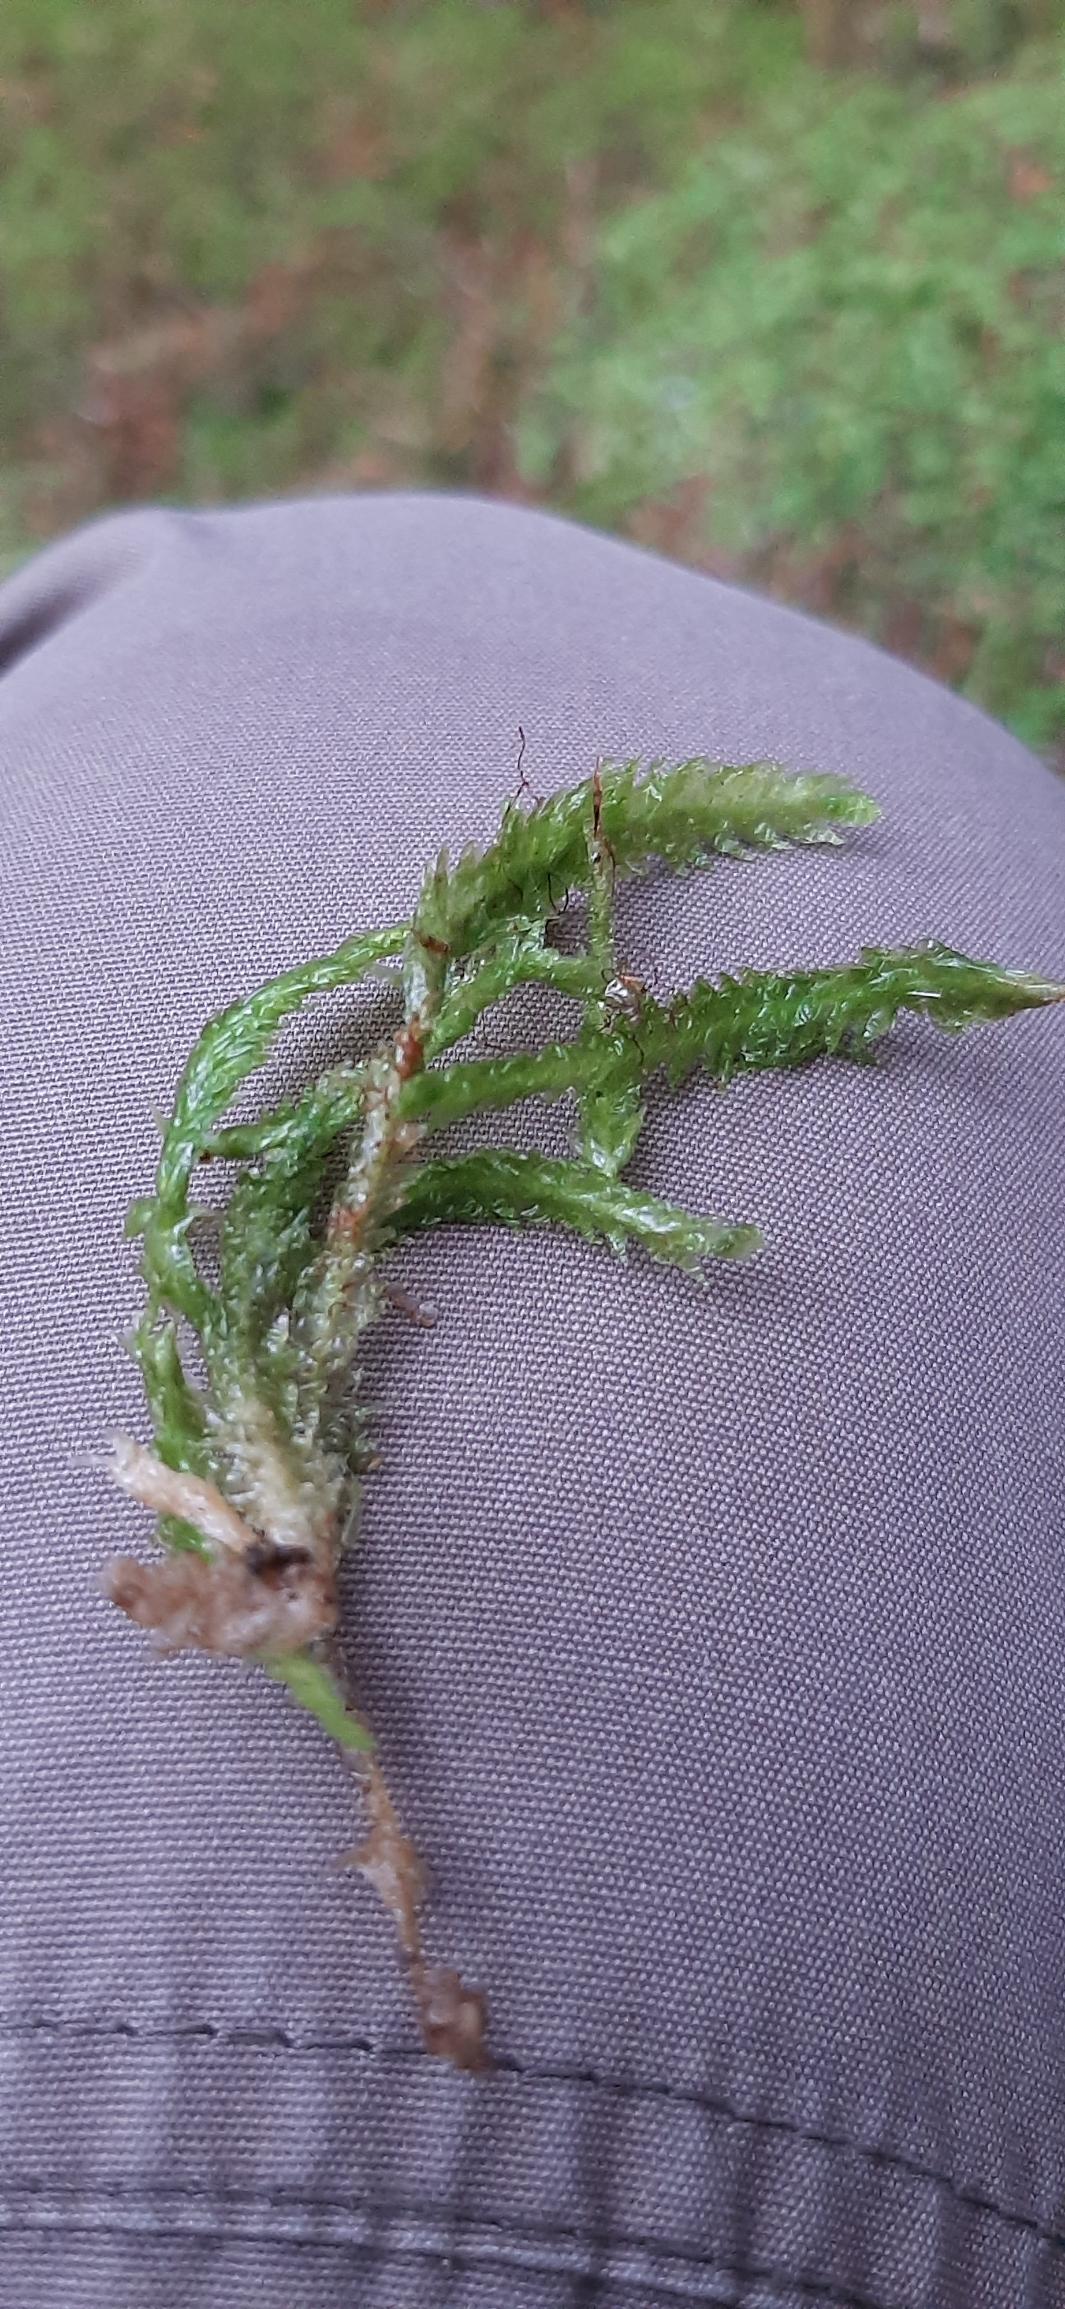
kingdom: Plantae
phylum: Bryophyta
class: Bryopsida
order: Hypnales
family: Plagiotheciaceae
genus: Plagiothecium
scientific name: Plagiothecium undulatum
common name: Bølget tæppemos
